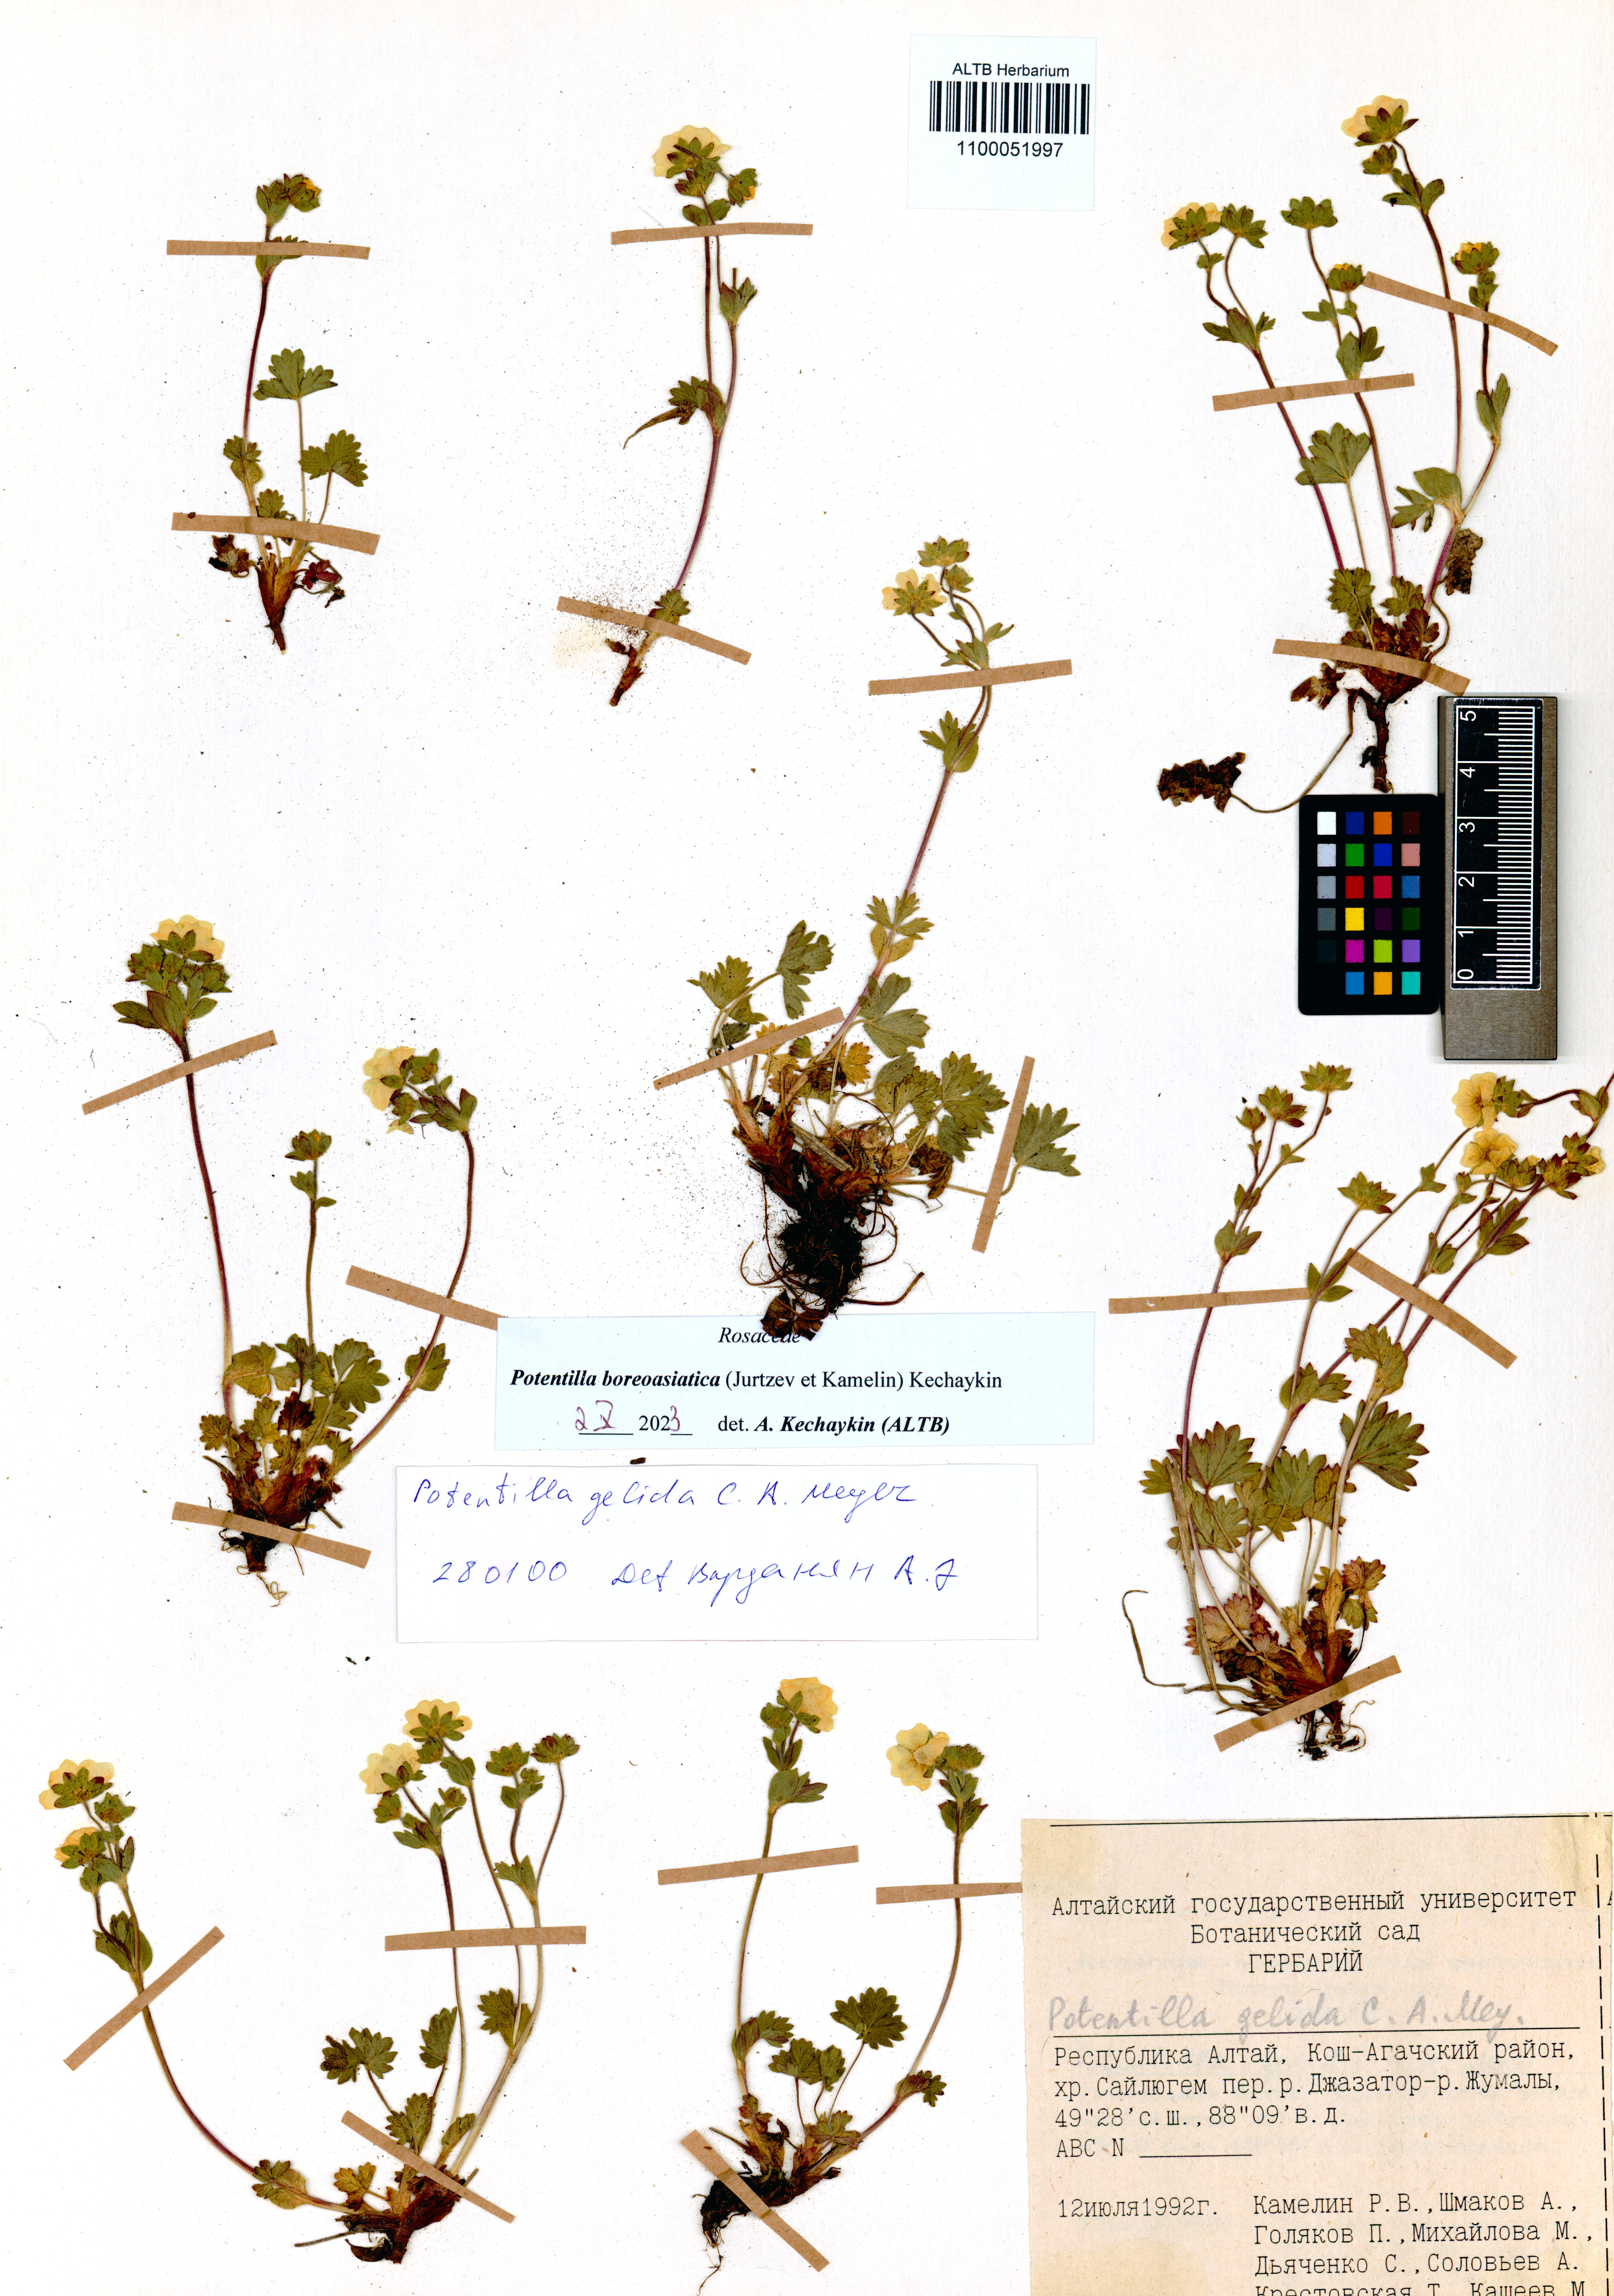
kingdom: Plantae
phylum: Tracheophyta
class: Magnoliopsida
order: Rosales
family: Rosaceae
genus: Potentilla
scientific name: Potentilla
